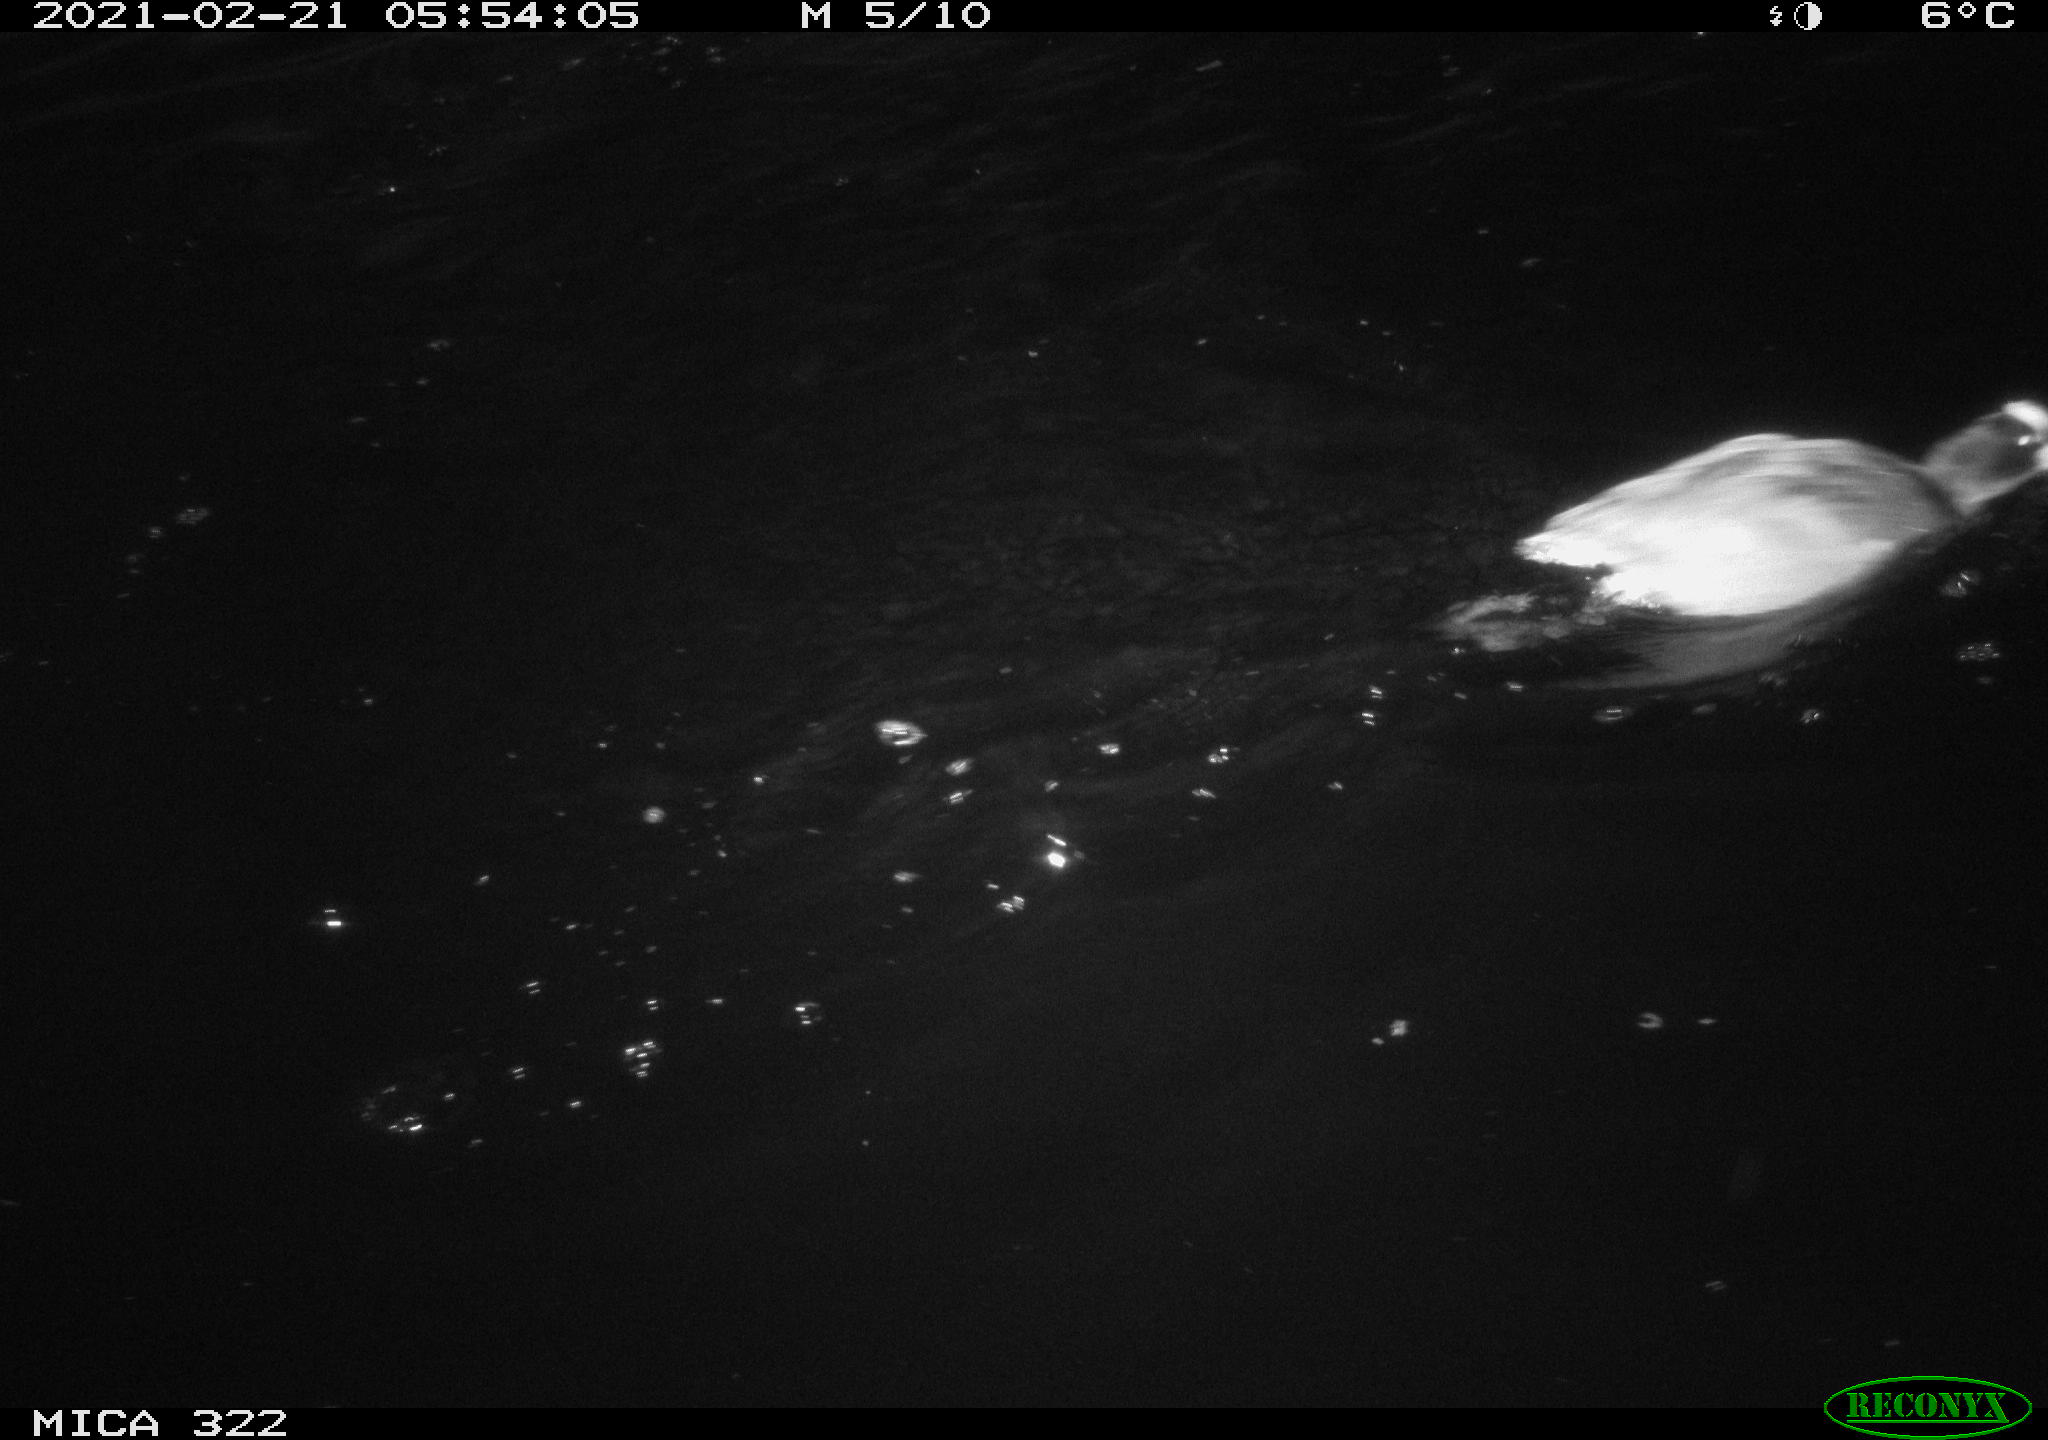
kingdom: Animalia
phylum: Chordata
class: Aves
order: Gruiformes
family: Rallidae
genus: Gallinula
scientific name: Gallinula chloropus
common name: Common moorhen
